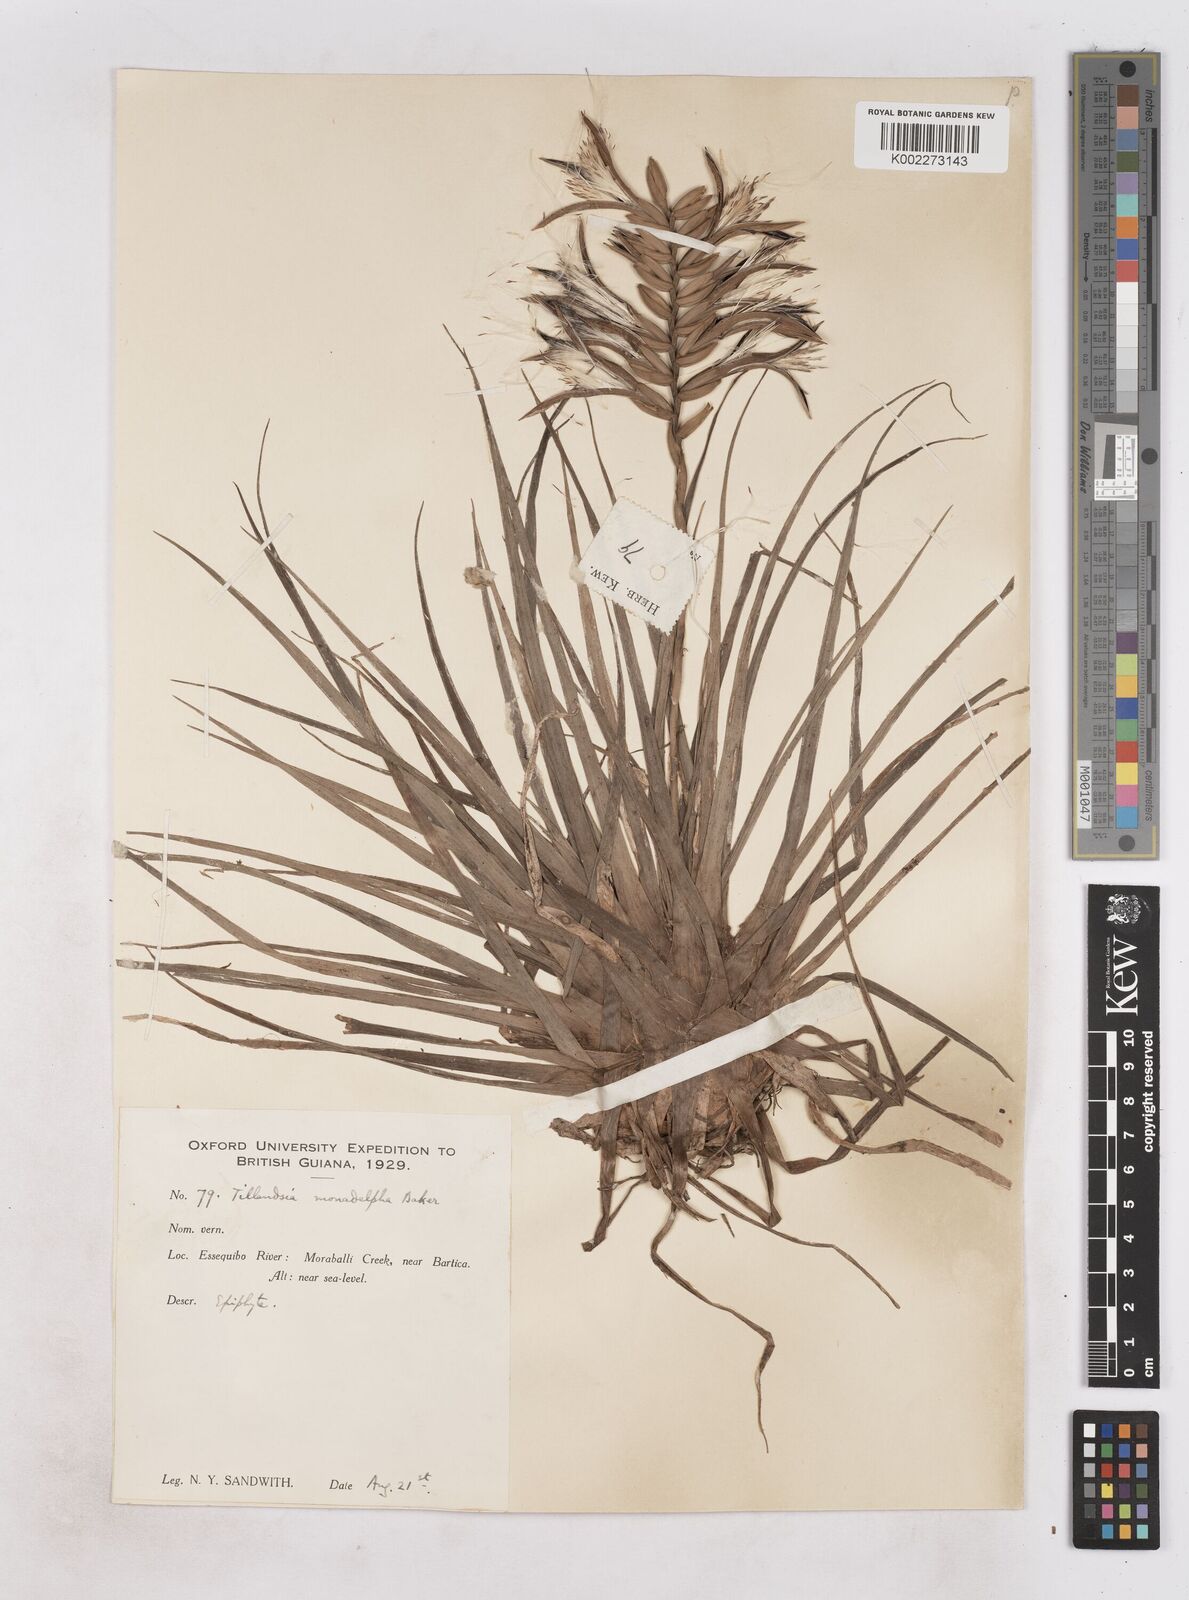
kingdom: Plantae
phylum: Tracheophyta
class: Liliopsida
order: Poales
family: Bromeliaceae
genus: Lemeltonia
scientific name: Lemeltonia monadelpha
